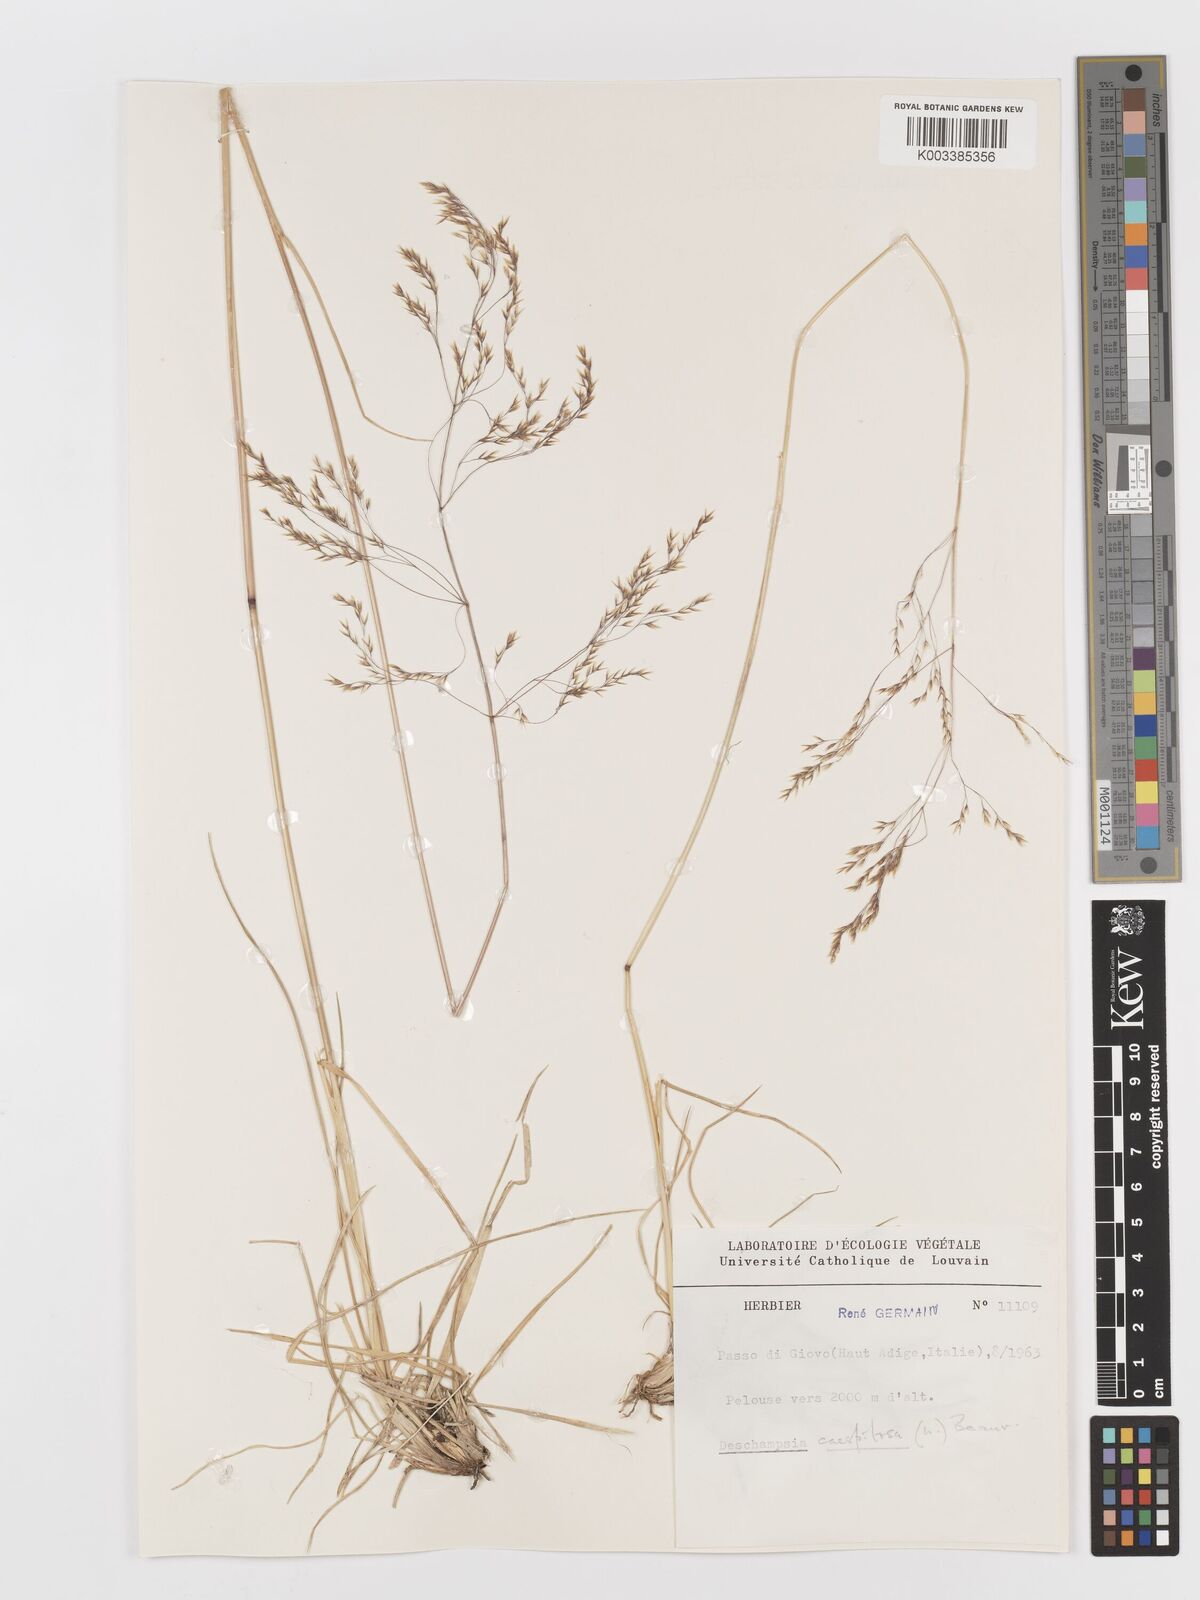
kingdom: Plantae
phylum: Tracheophyta
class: Liliopsida
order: Poales
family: Poaceae
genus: Deschampsia
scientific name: Deschampsia cespitosa
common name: Tufted hair-grass
